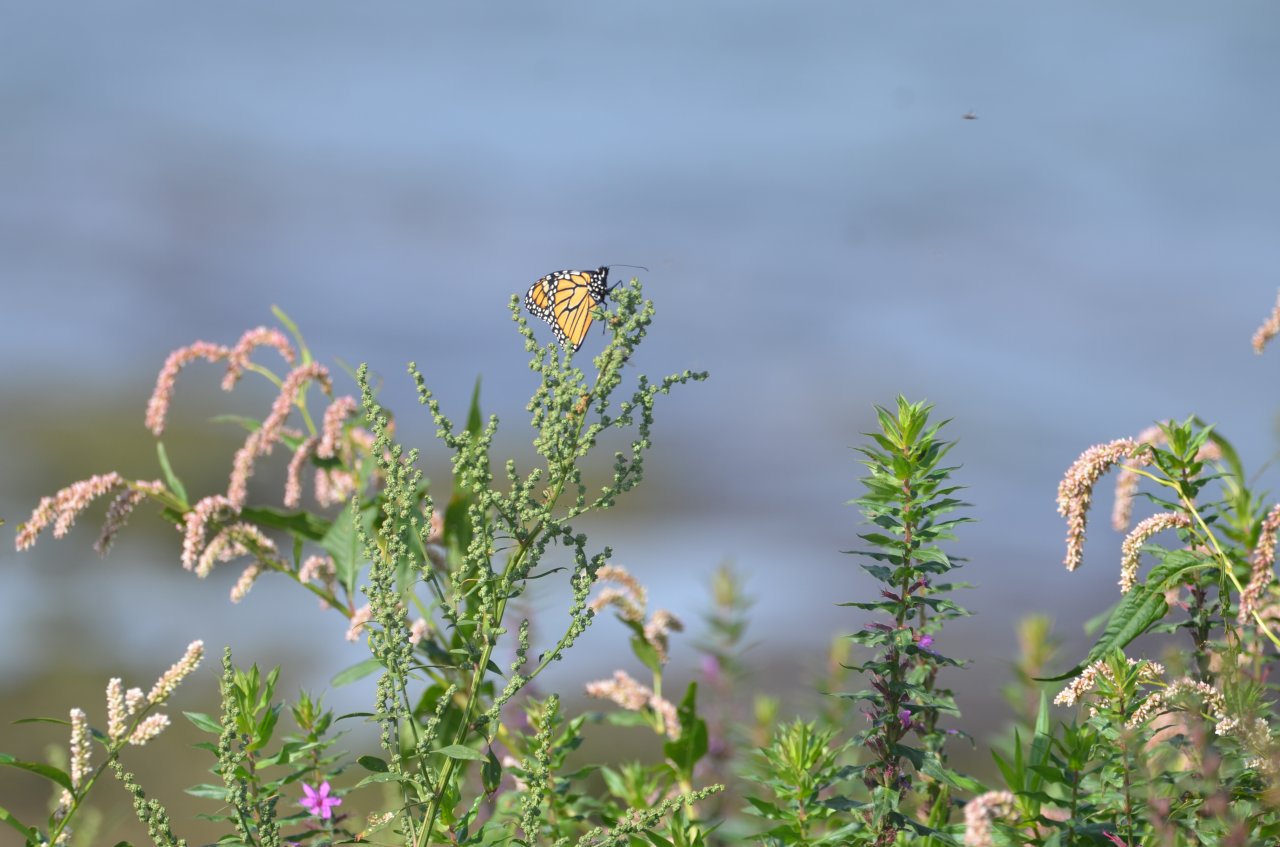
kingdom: Animalia
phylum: Arthropoda
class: Insecta
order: Lepidoptera
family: Nymphalidae
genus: Danaus
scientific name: Danaus plexippus
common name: Monarch
